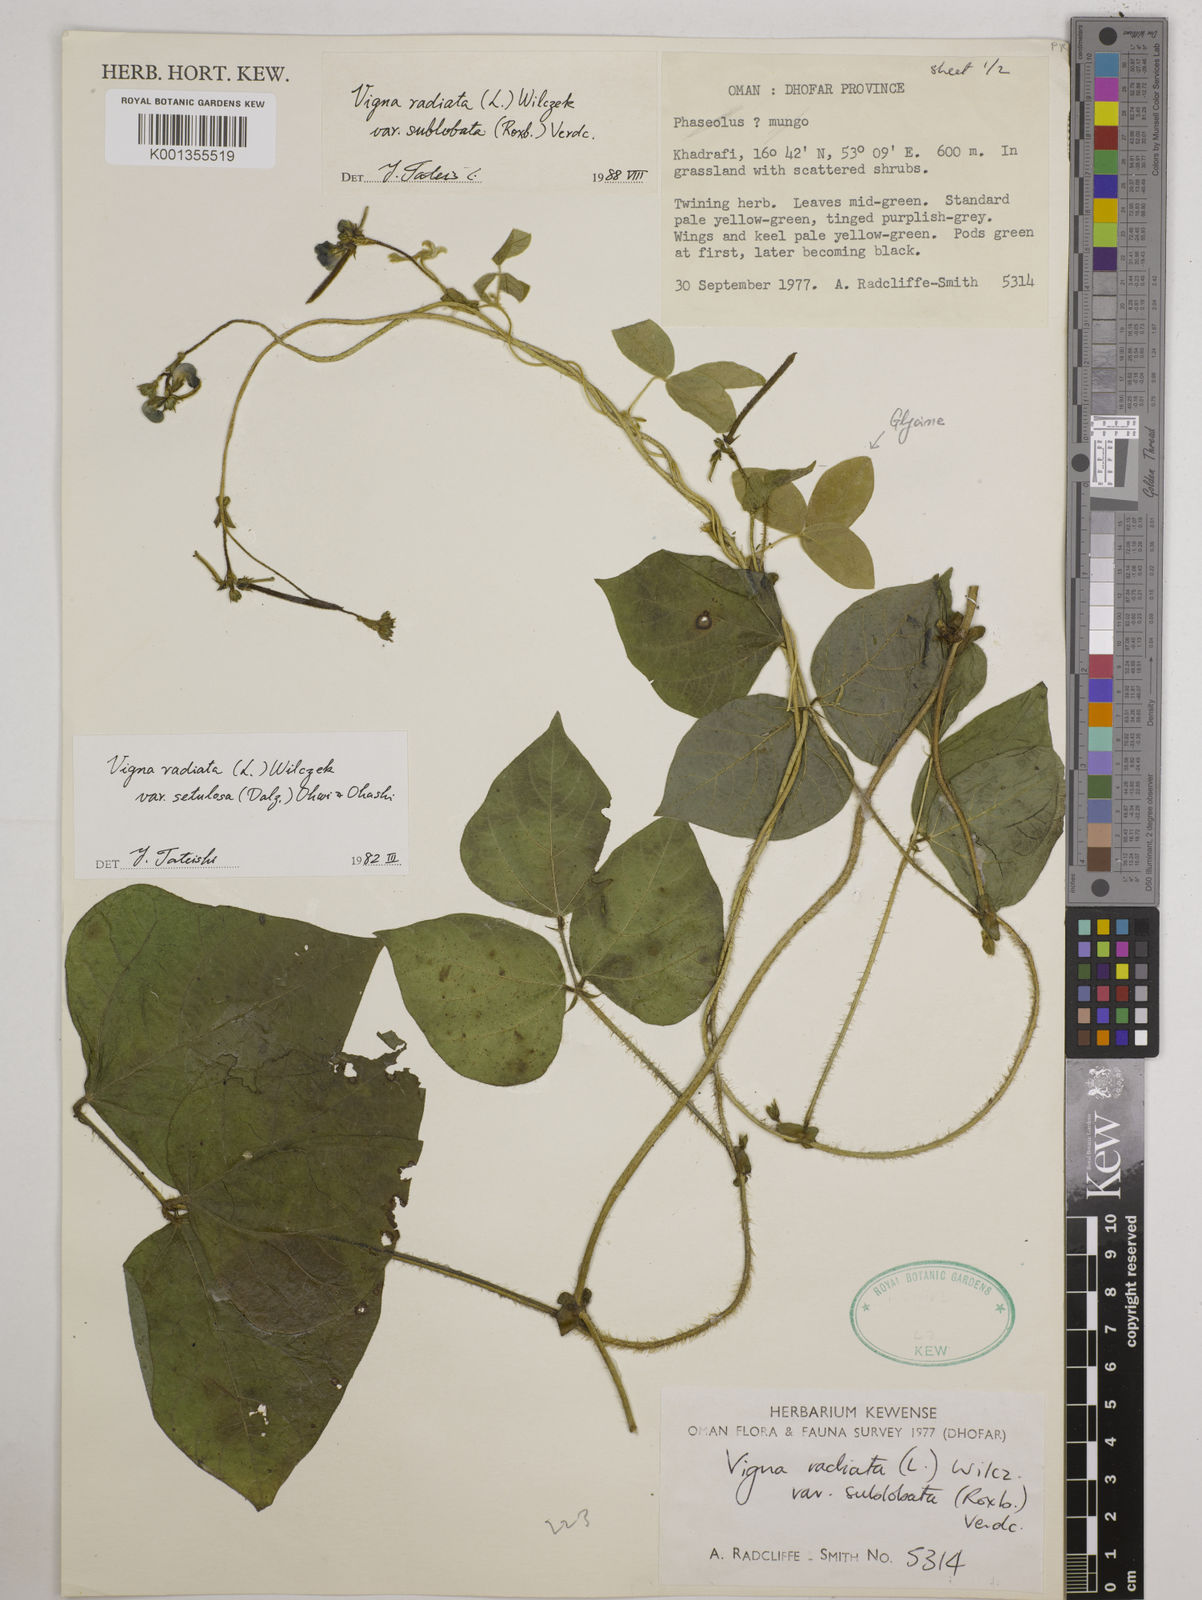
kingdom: Plantae
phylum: Tracheophyta
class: Magnoliopsida
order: Fabales
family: Fabaceae
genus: Vigna
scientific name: Vigna radiata
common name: Mung-bean
